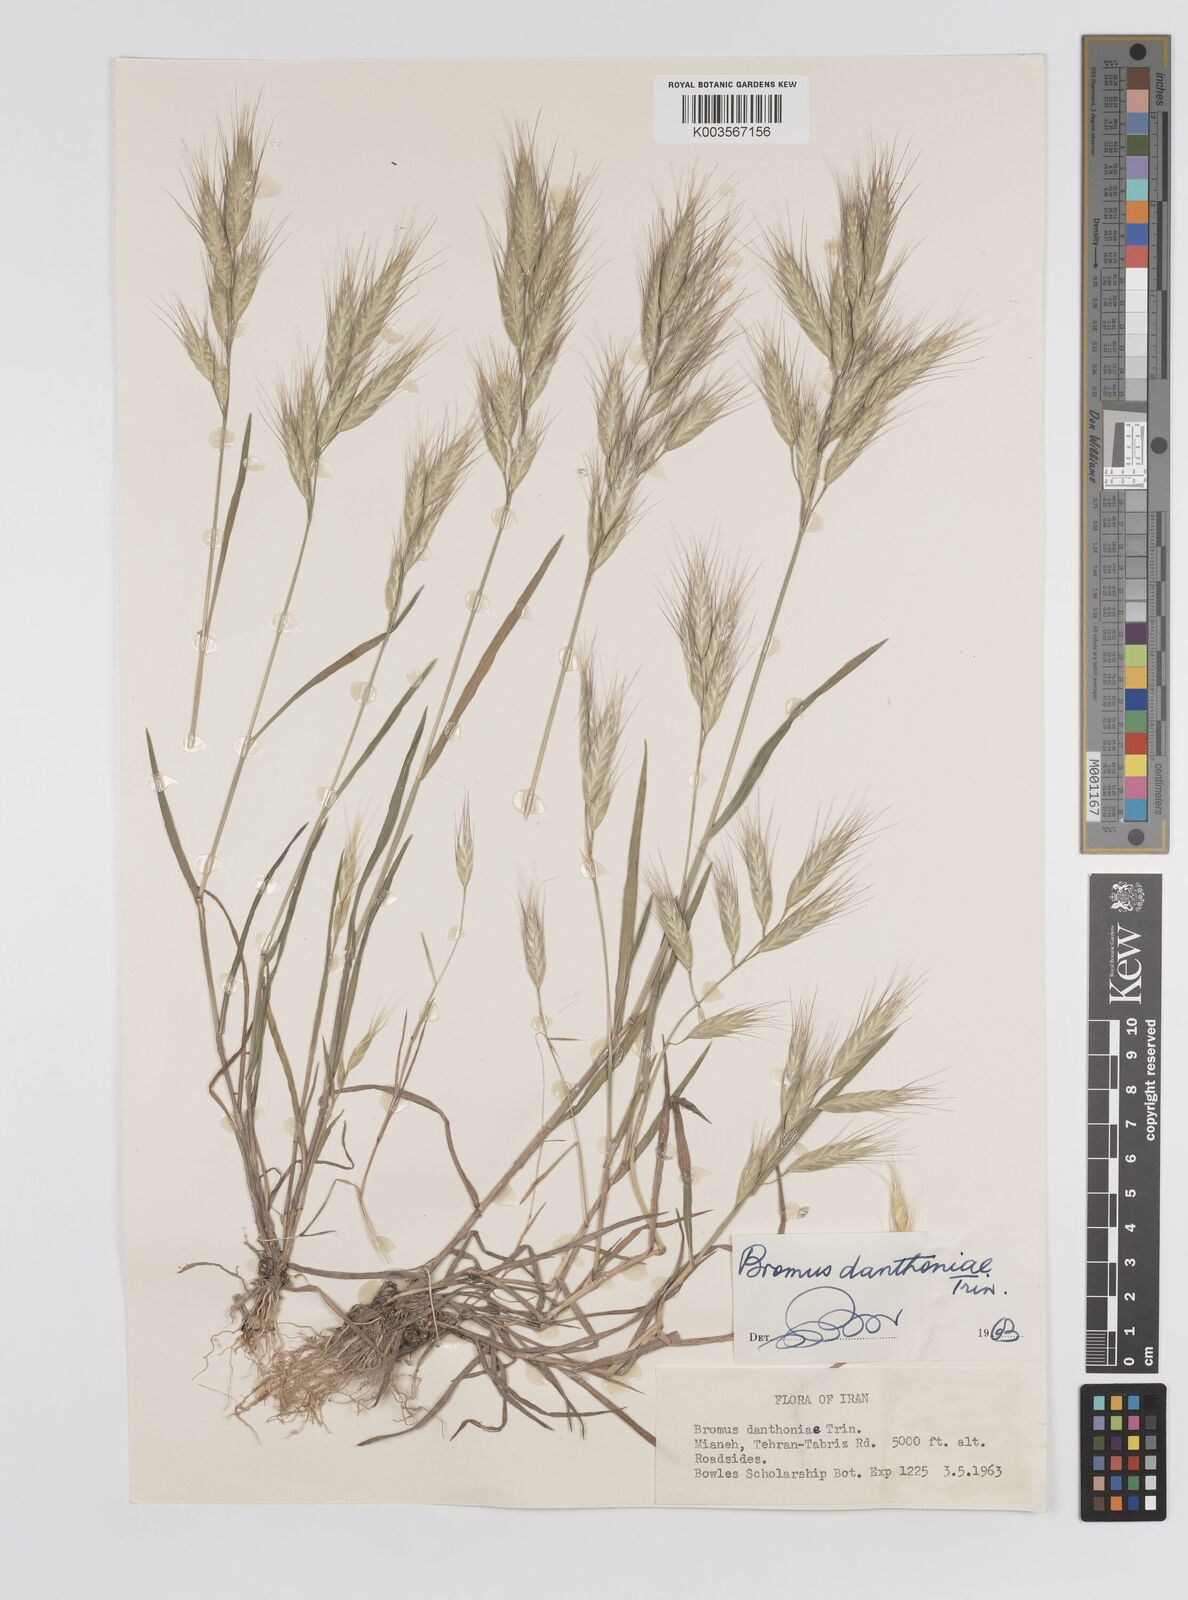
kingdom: Plantae
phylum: Tracheophyta
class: Liliopsida
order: Poales
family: Poaceae
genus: Bromus
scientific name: Bromus danthoniae
